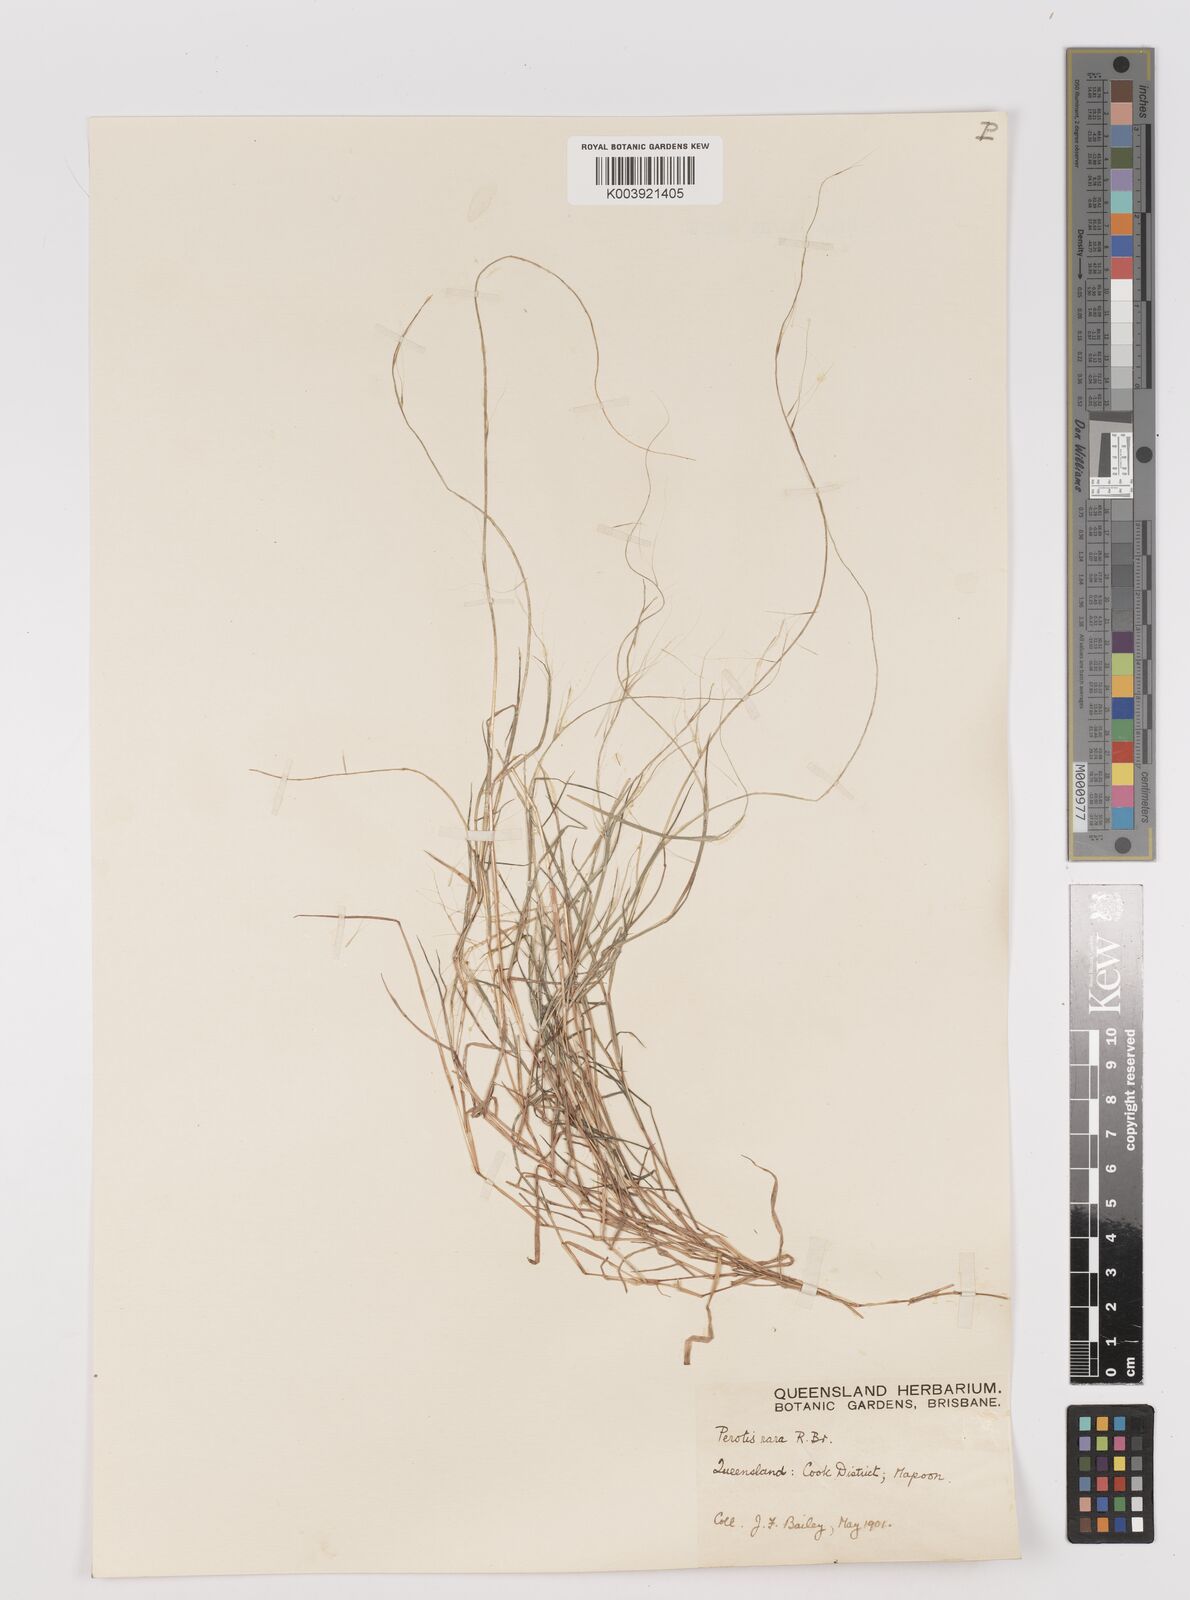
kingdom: Plantae
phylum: Tracheophyta
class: Liliopsida
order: Poales
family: Poaceae
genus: Perotis
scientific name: Perotis rara
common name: Comet grass
